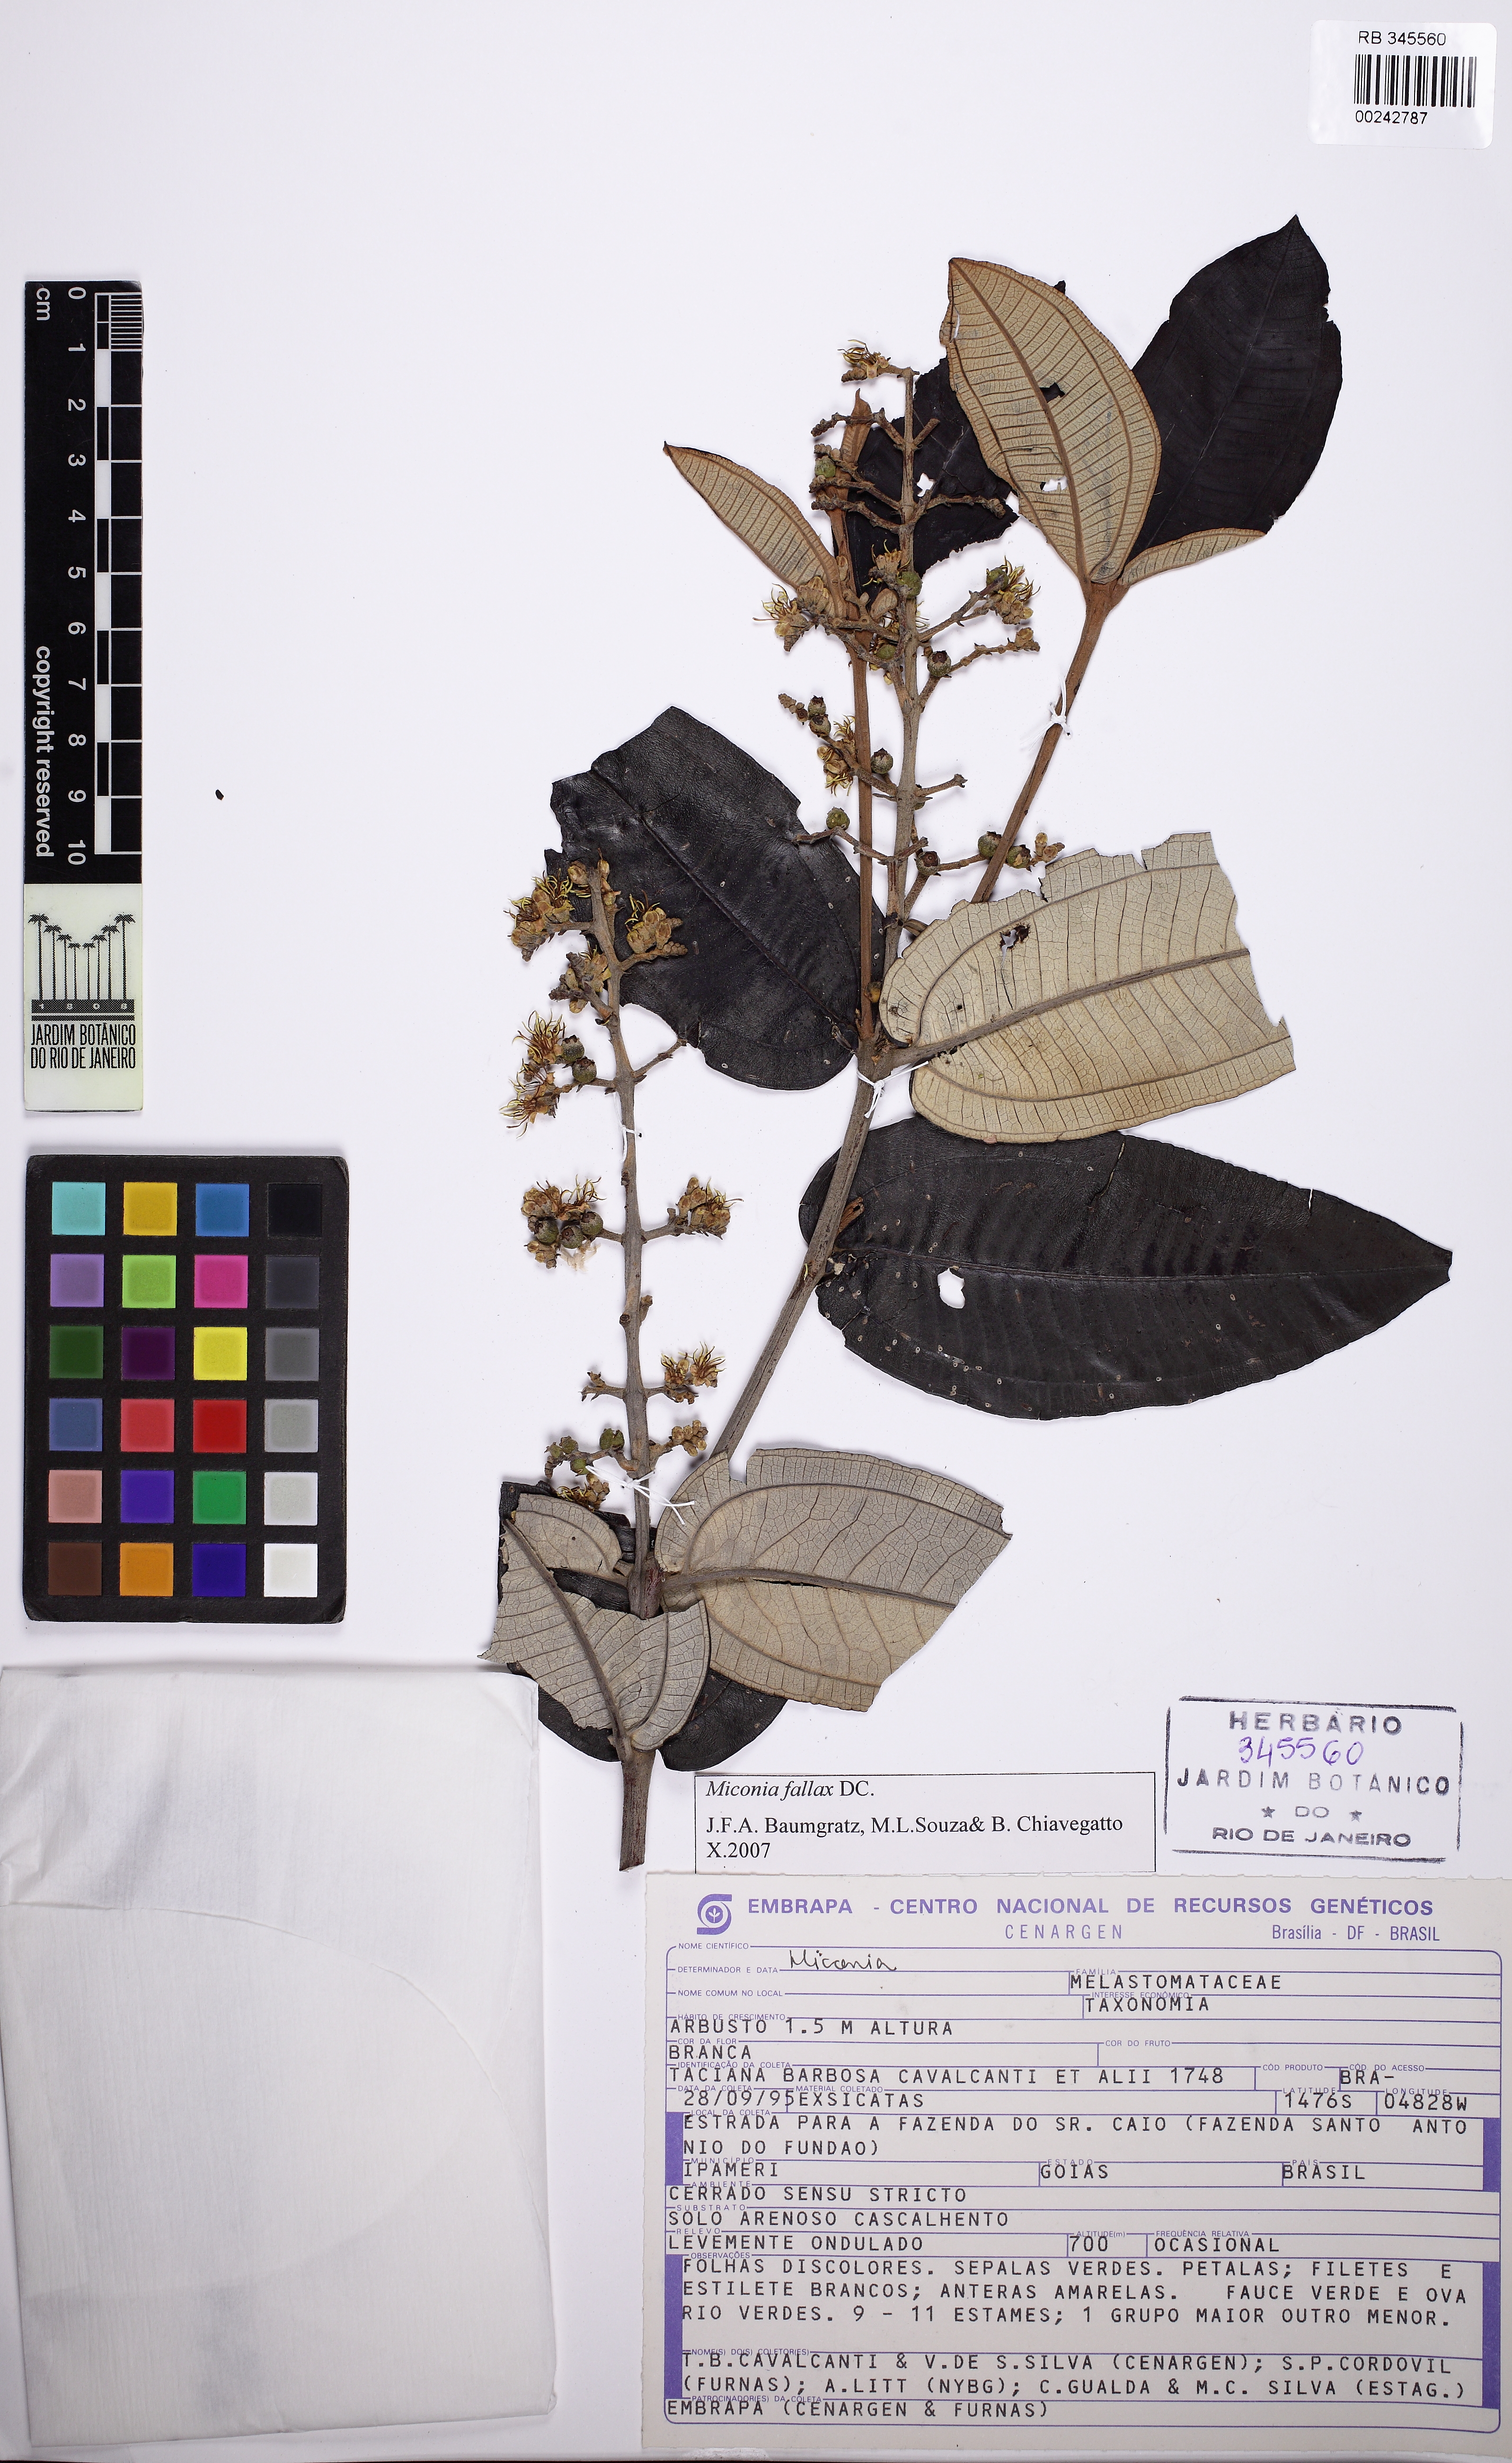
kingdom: Plantae
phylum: Tracheophyta
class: Magnoliopsida
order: Myrtales
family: Melastomataceae
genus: Miconia
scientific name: Miconia ferruginata
